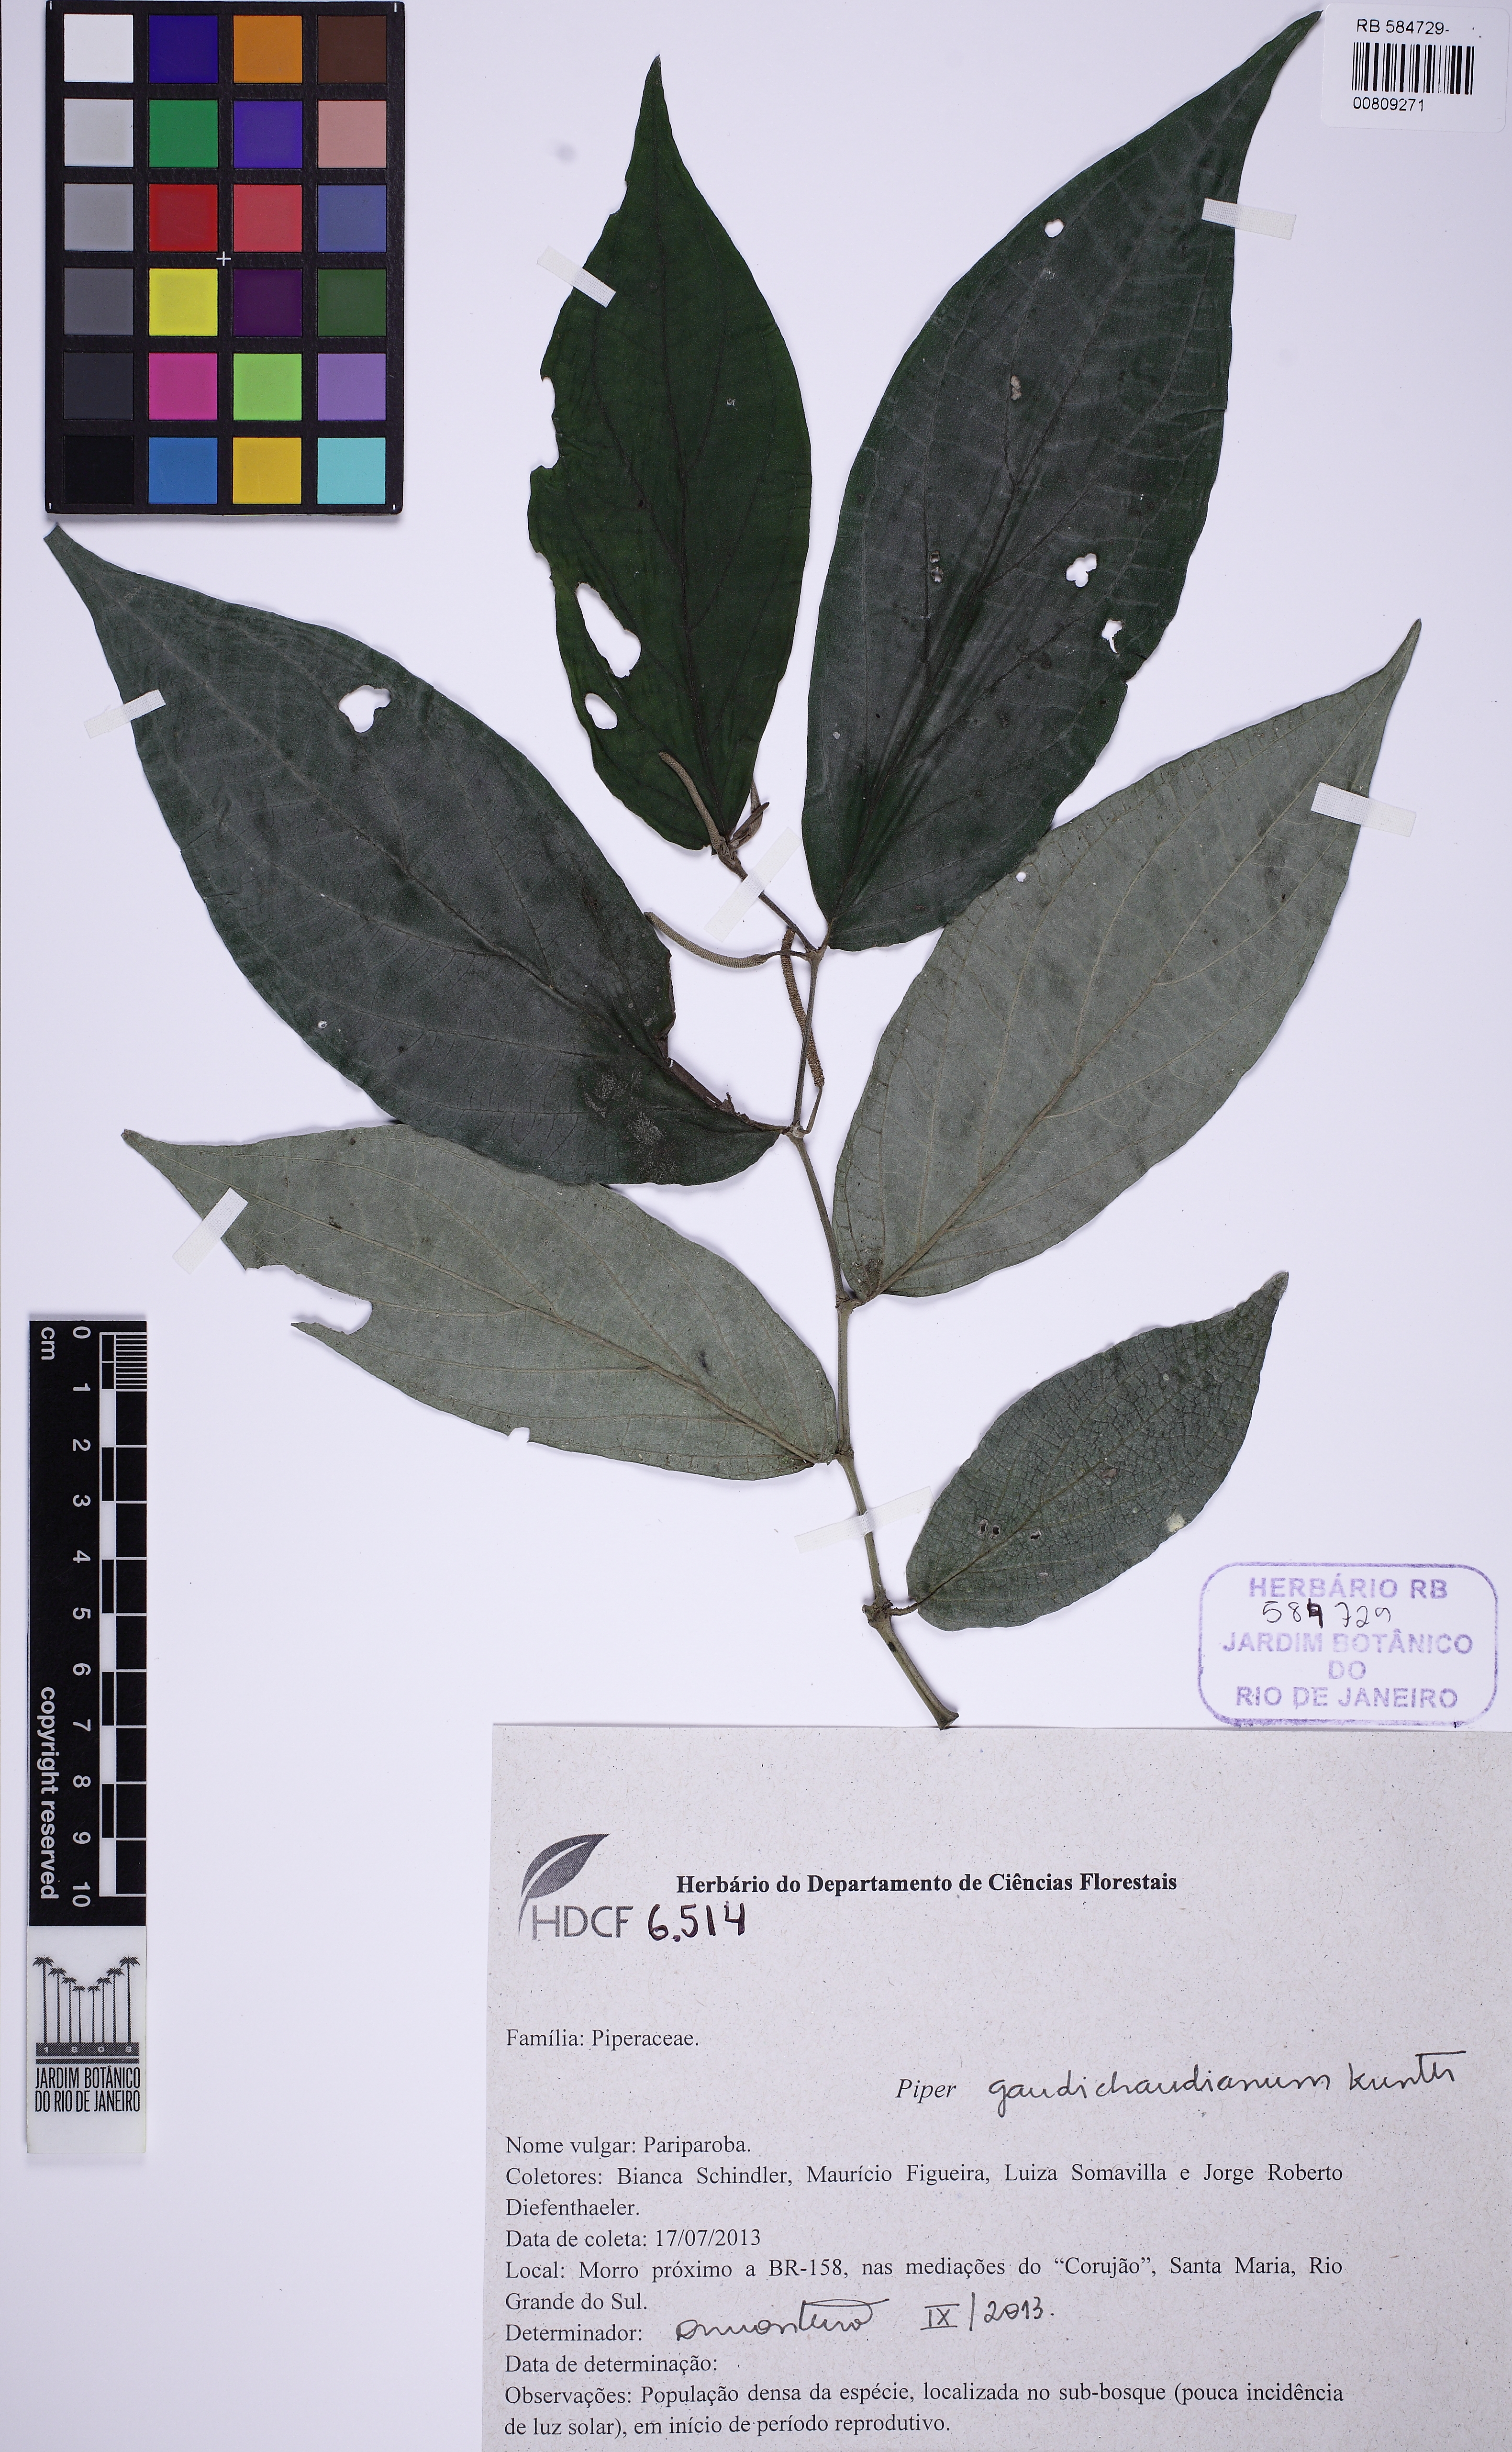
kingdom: Plantae
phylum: Tracheophyta
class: Magnoliopsida
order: Piperales
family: Piperaceae
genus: Piper
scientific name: Piper gaudichaudianum
